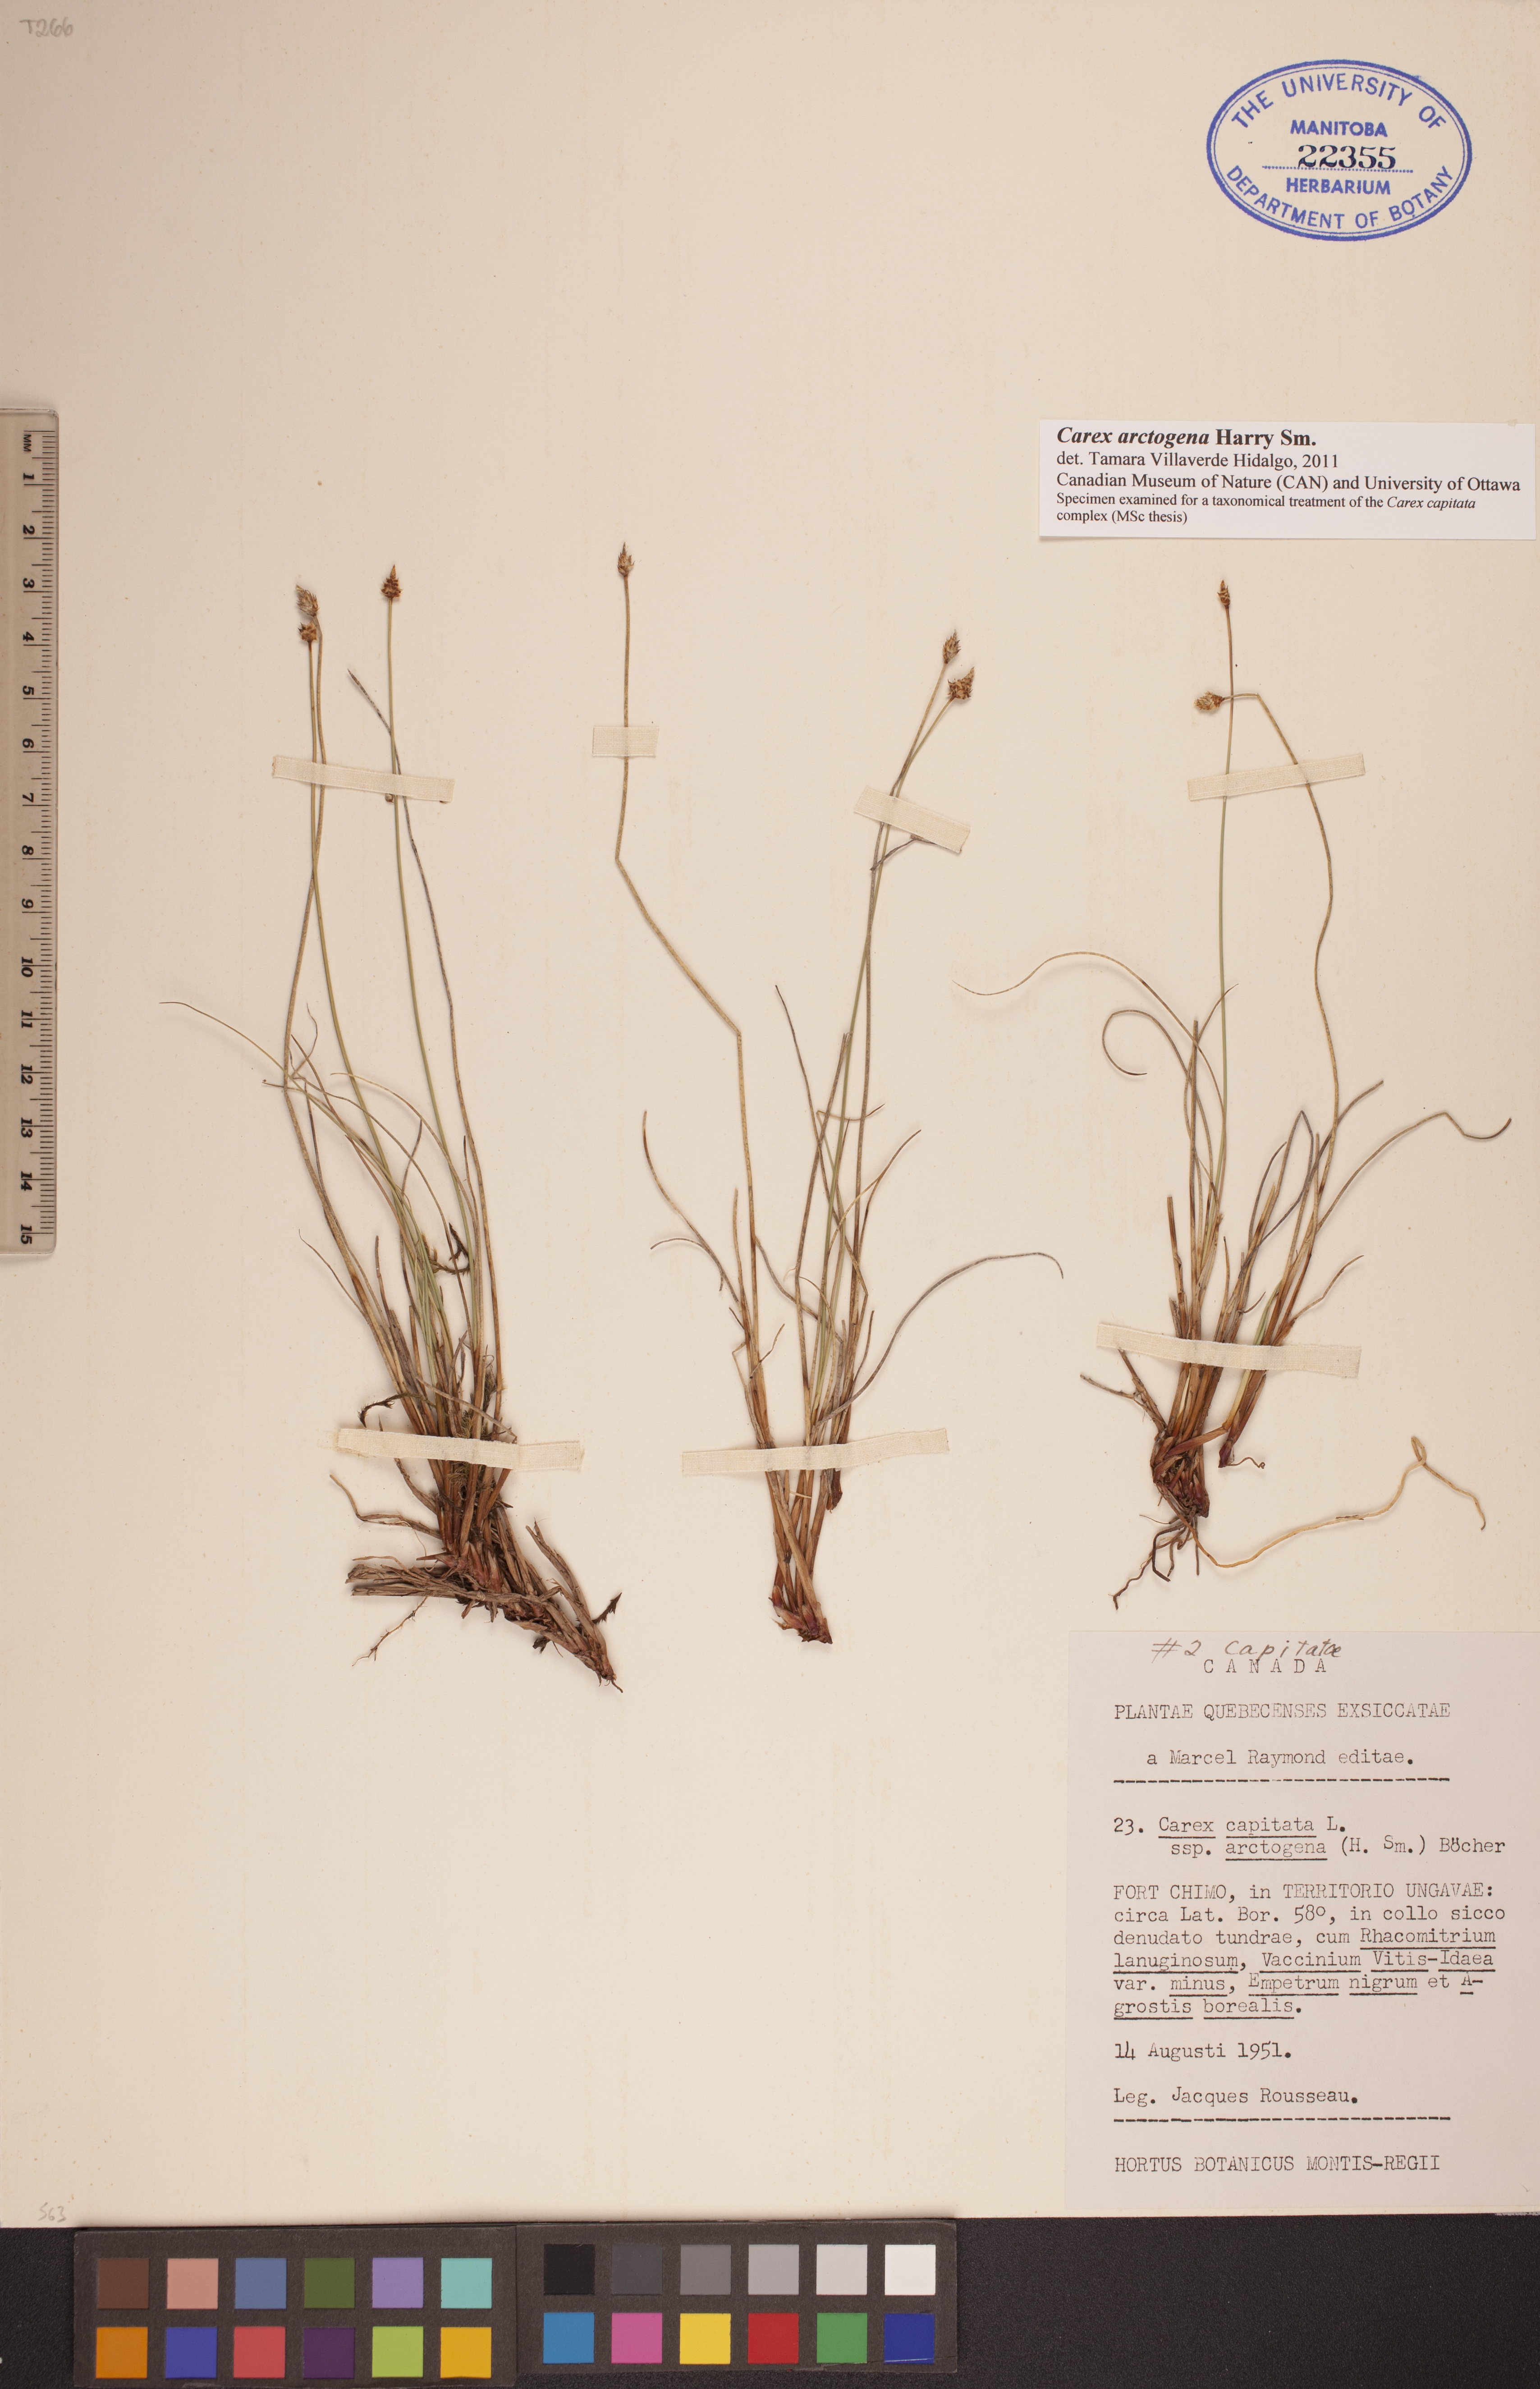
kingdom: Plantae
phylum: Tracheophyta
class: Liliopsida
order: Poales
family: Cyperaceae
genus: Carex
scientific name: Carex arctogena
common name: Black sedge
